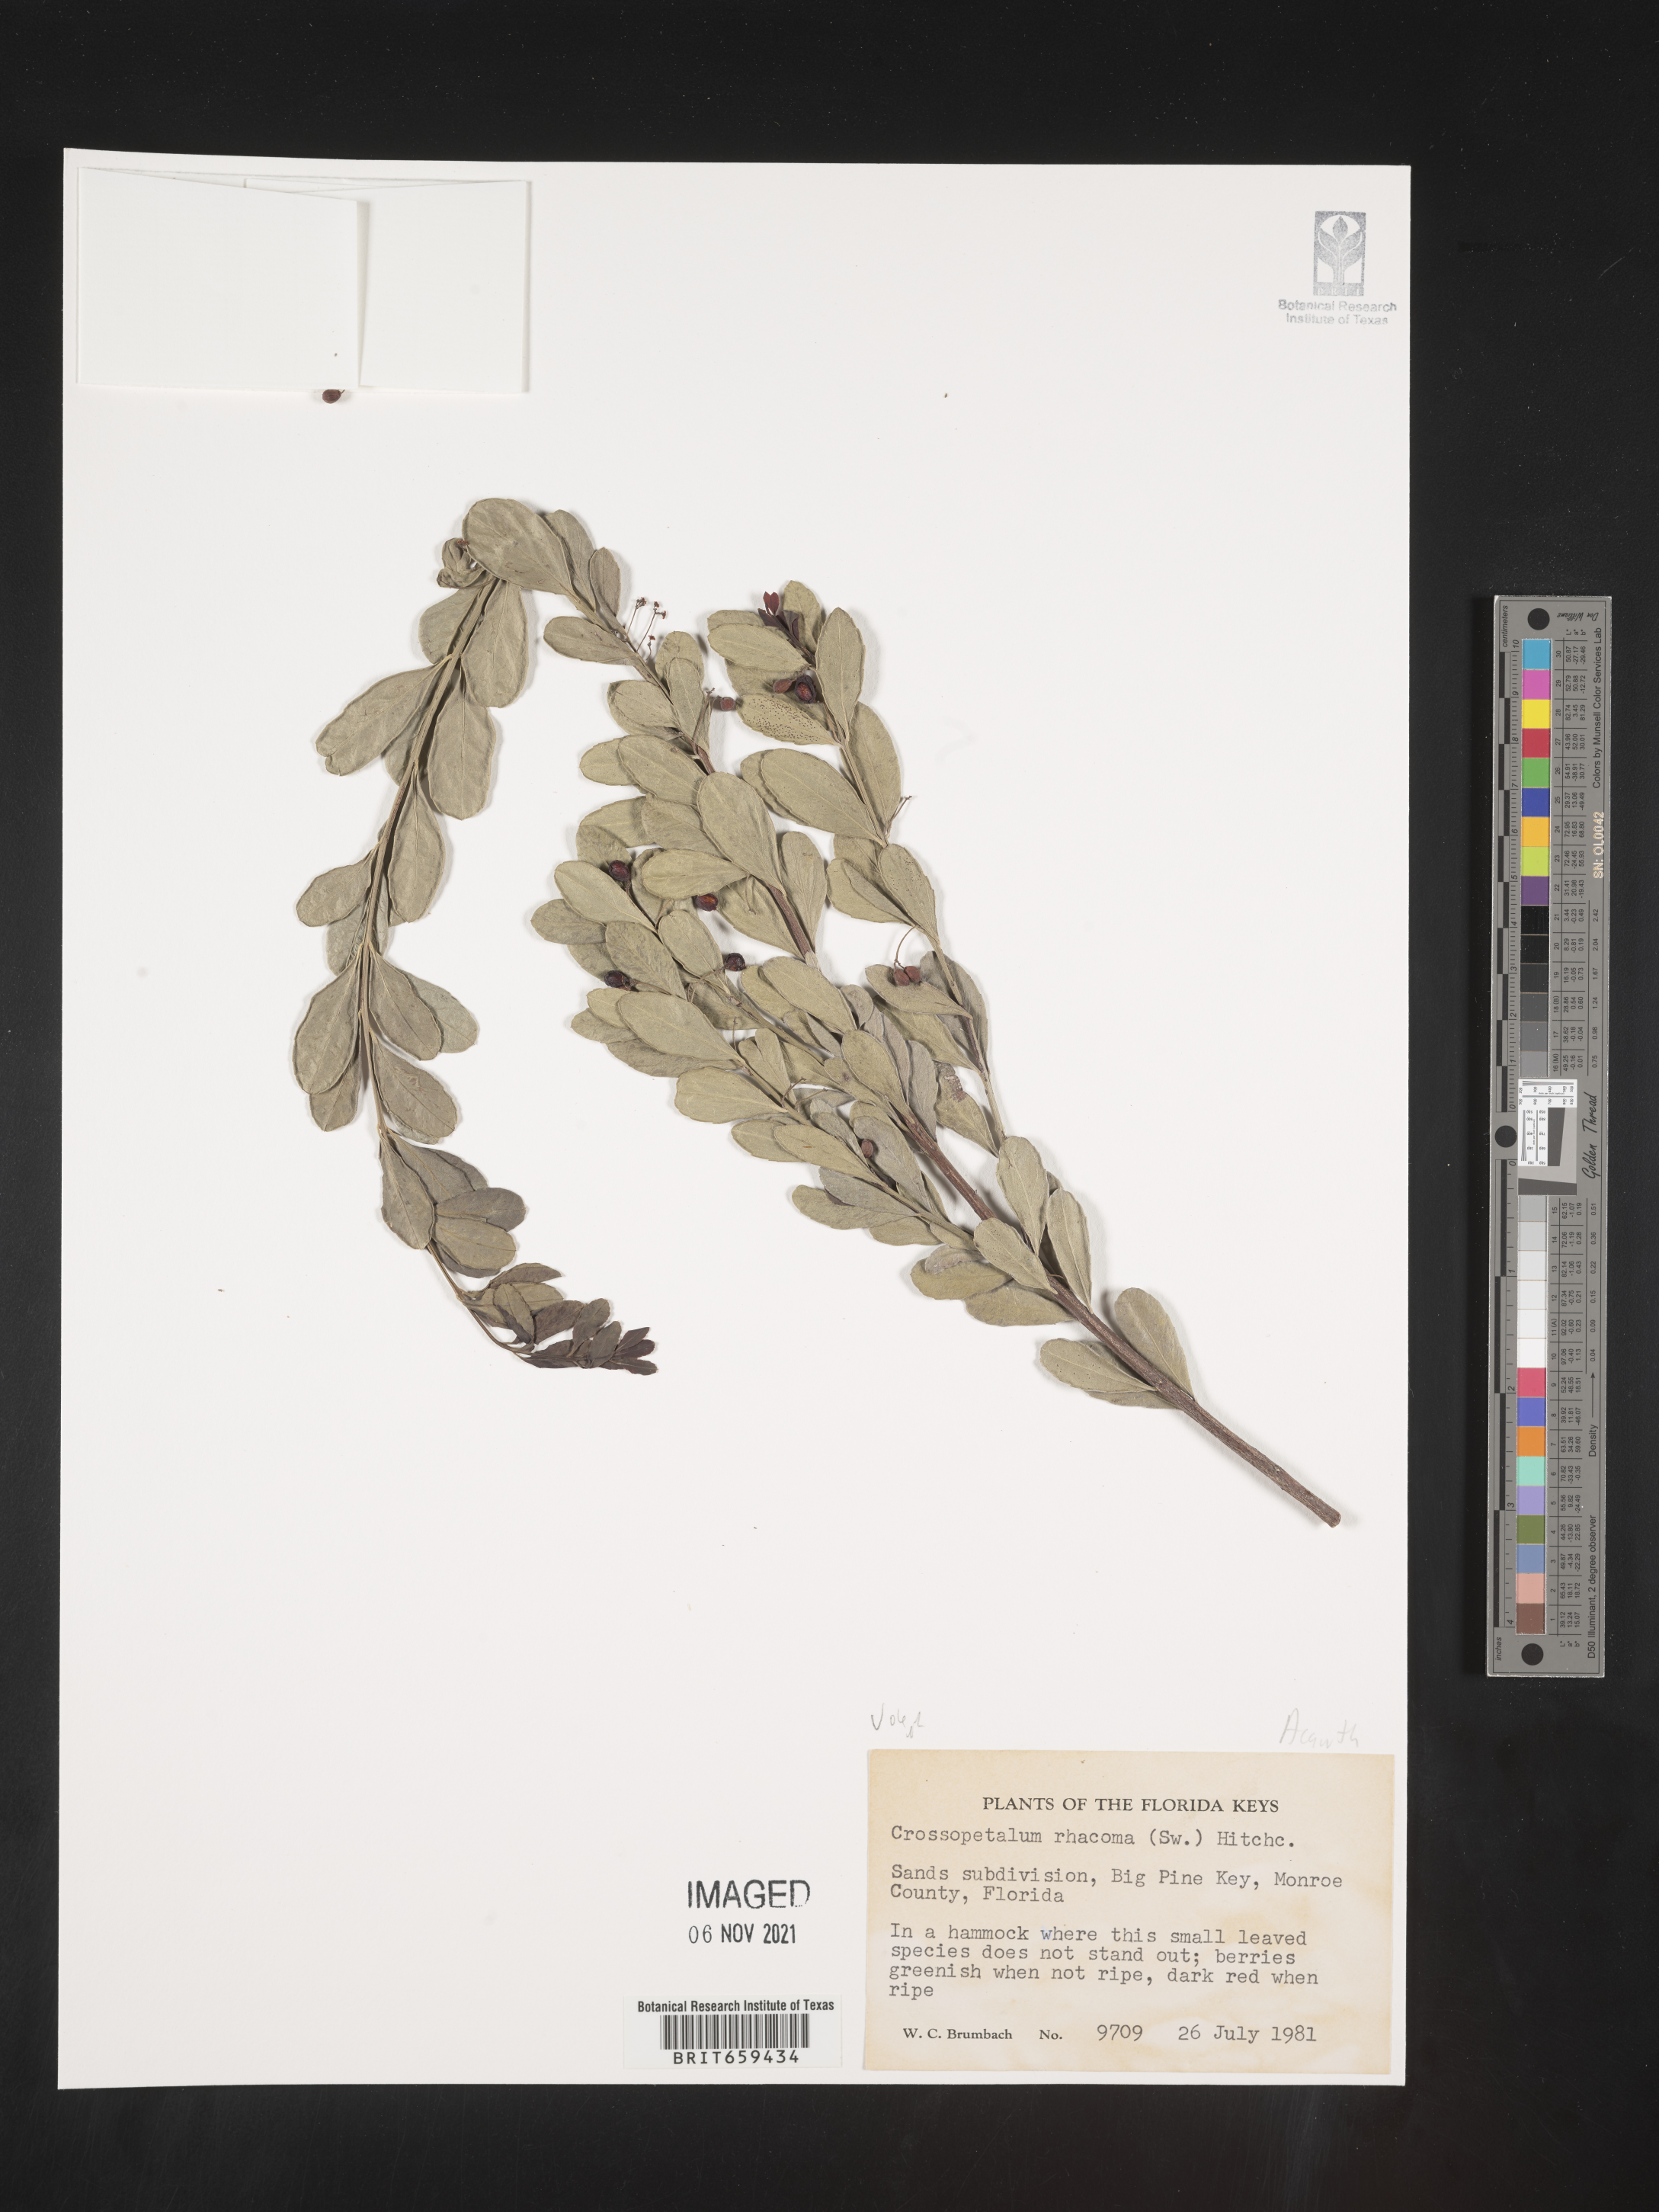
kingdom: Plantae
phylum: Tracheophyta
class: Magnoliopsida
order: Celastrales
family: Celastraceae
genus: Crossopetalum
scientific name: Crossopetalum
